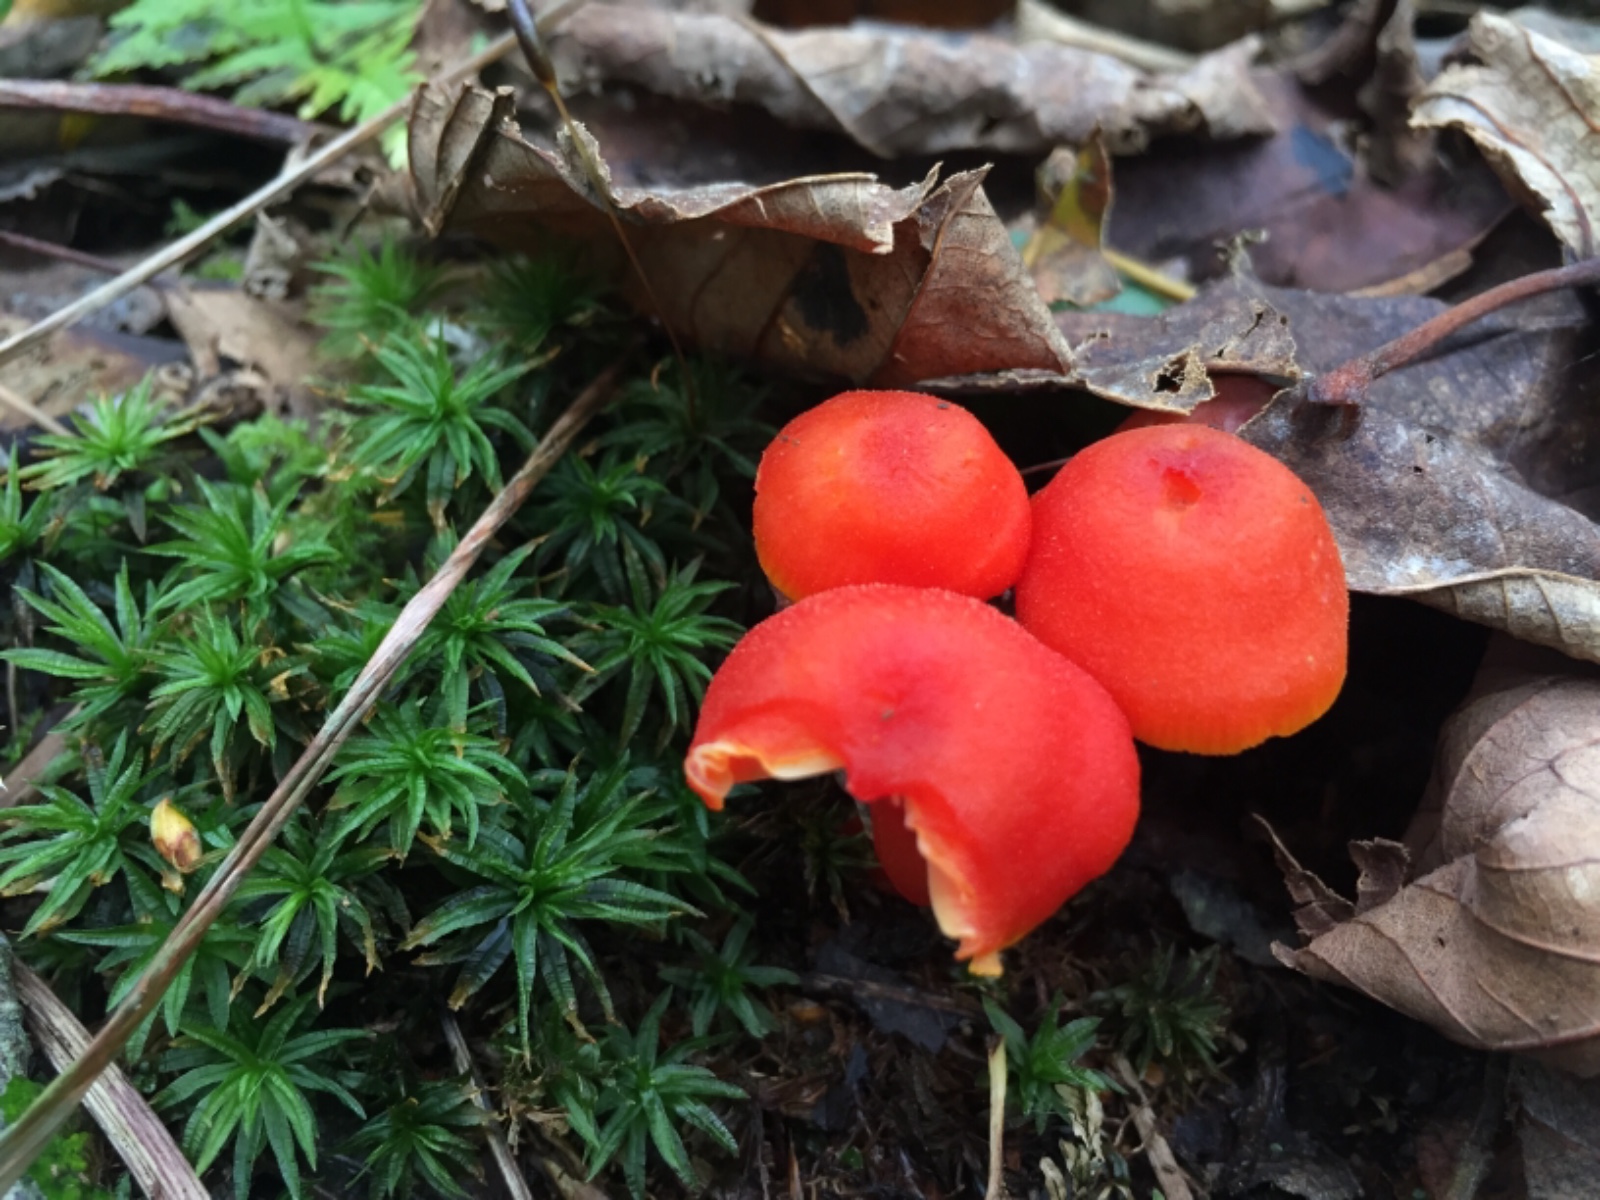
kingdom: Fungi
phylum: Basidiomycota
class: Agaricomycetes
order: Agaricales
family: Hygrophoraceae
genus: Hygrocybe
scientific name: Hygrocybe miniata
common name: mønje-vokshat
